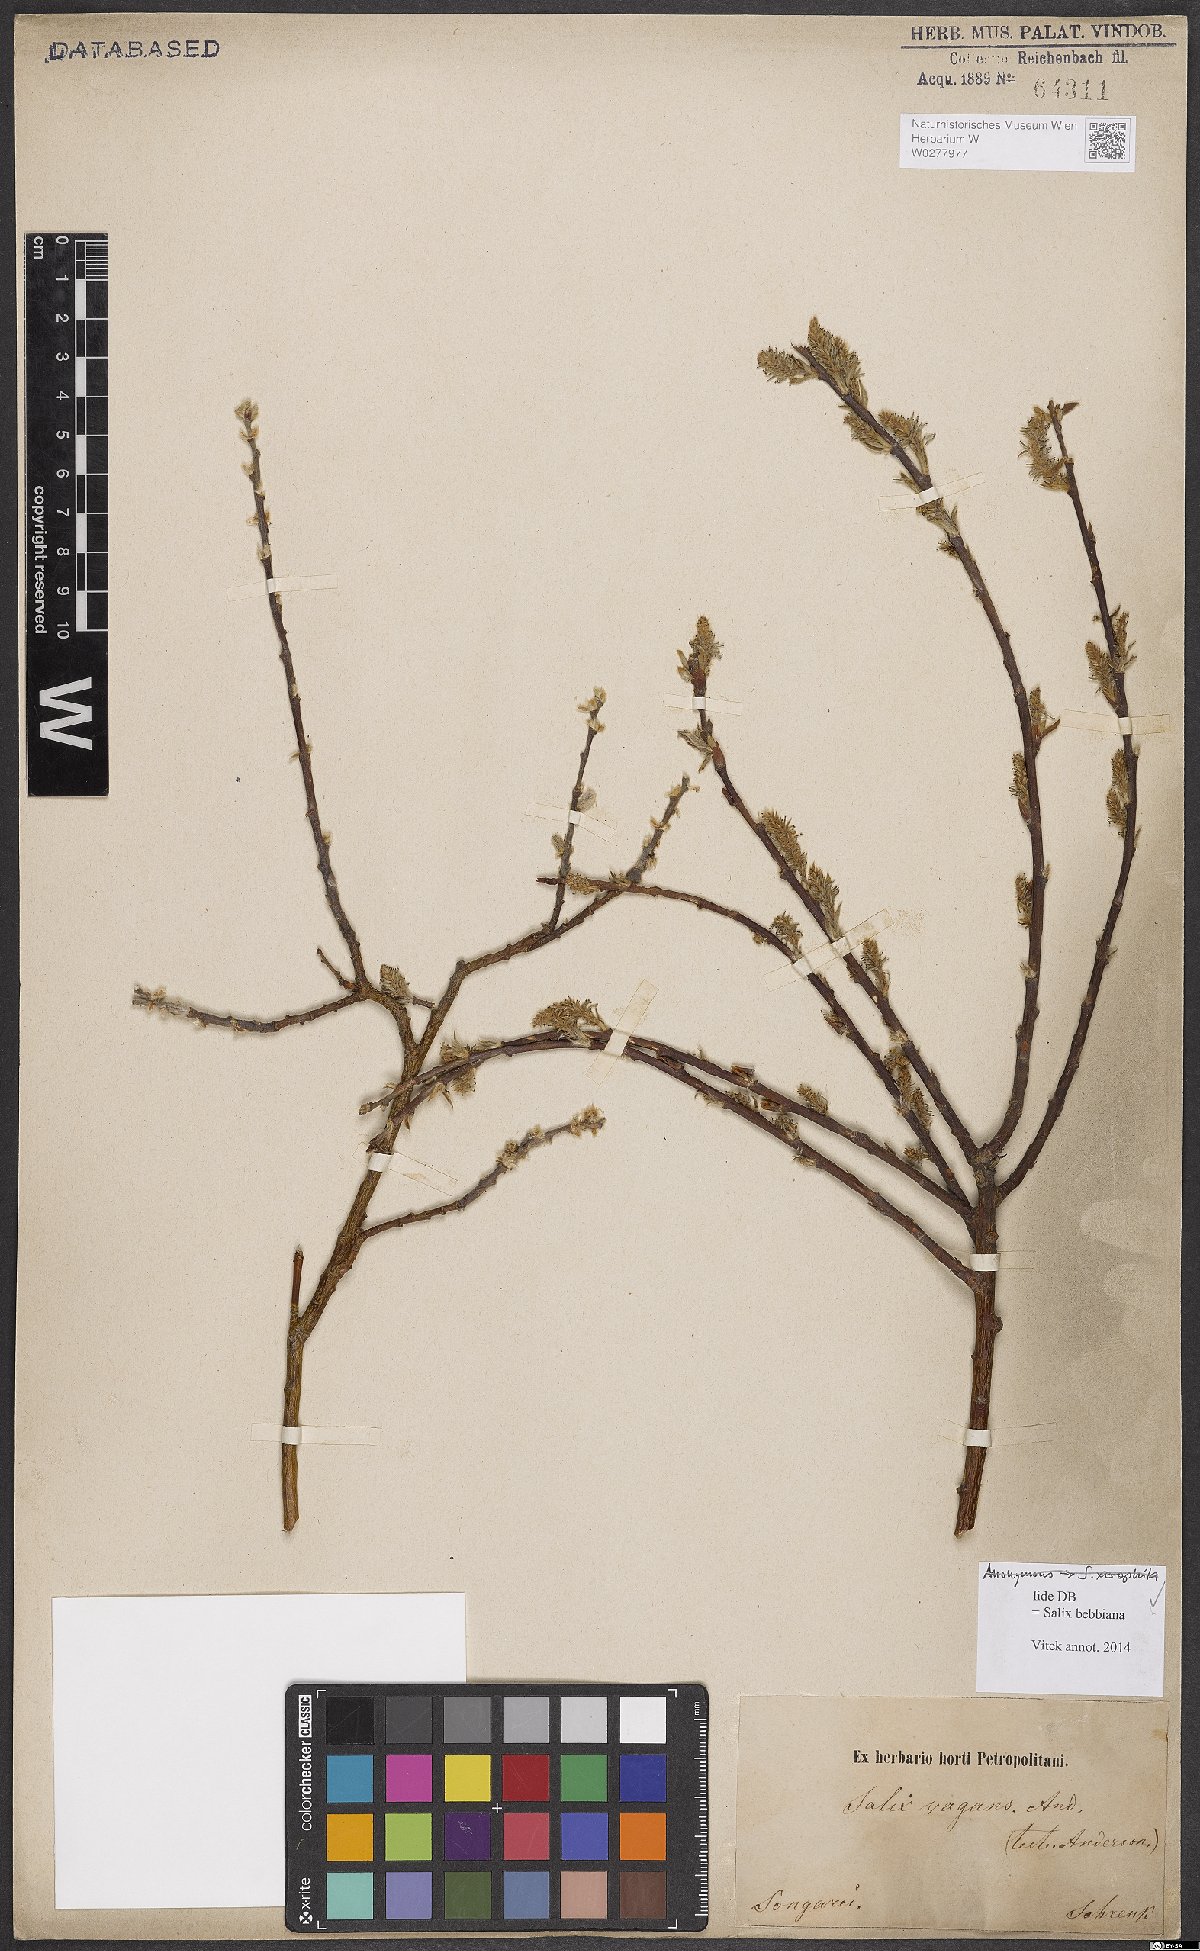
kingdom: Plantae
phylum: Tracheophyta
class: Magnoliopsida
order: Malpighiales
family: Salicaceae
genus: Salix
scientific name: Salix bebbiana
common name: Bebb's willow
